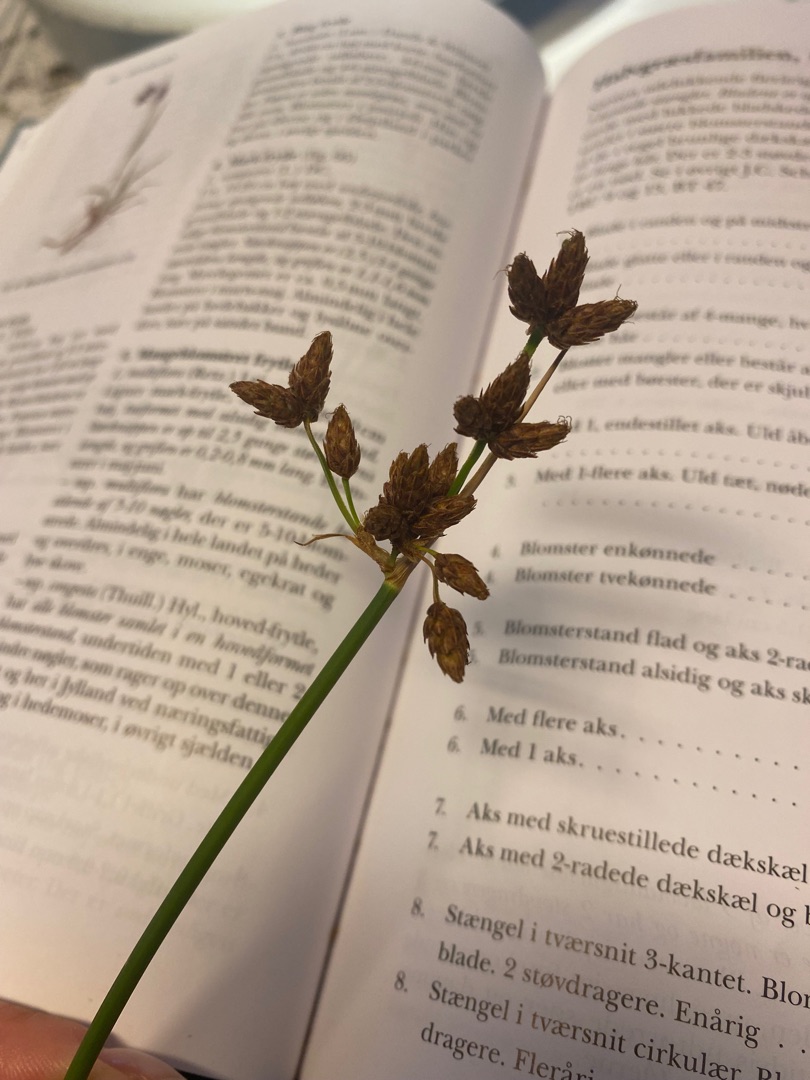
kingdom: Plantae
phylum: Tracheophyta
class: Liliopsida
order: Poales
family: Cyperaceae
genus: Schoenoplectus
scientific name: Schoenoplectus lacustris
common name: Sø-kogleaks
